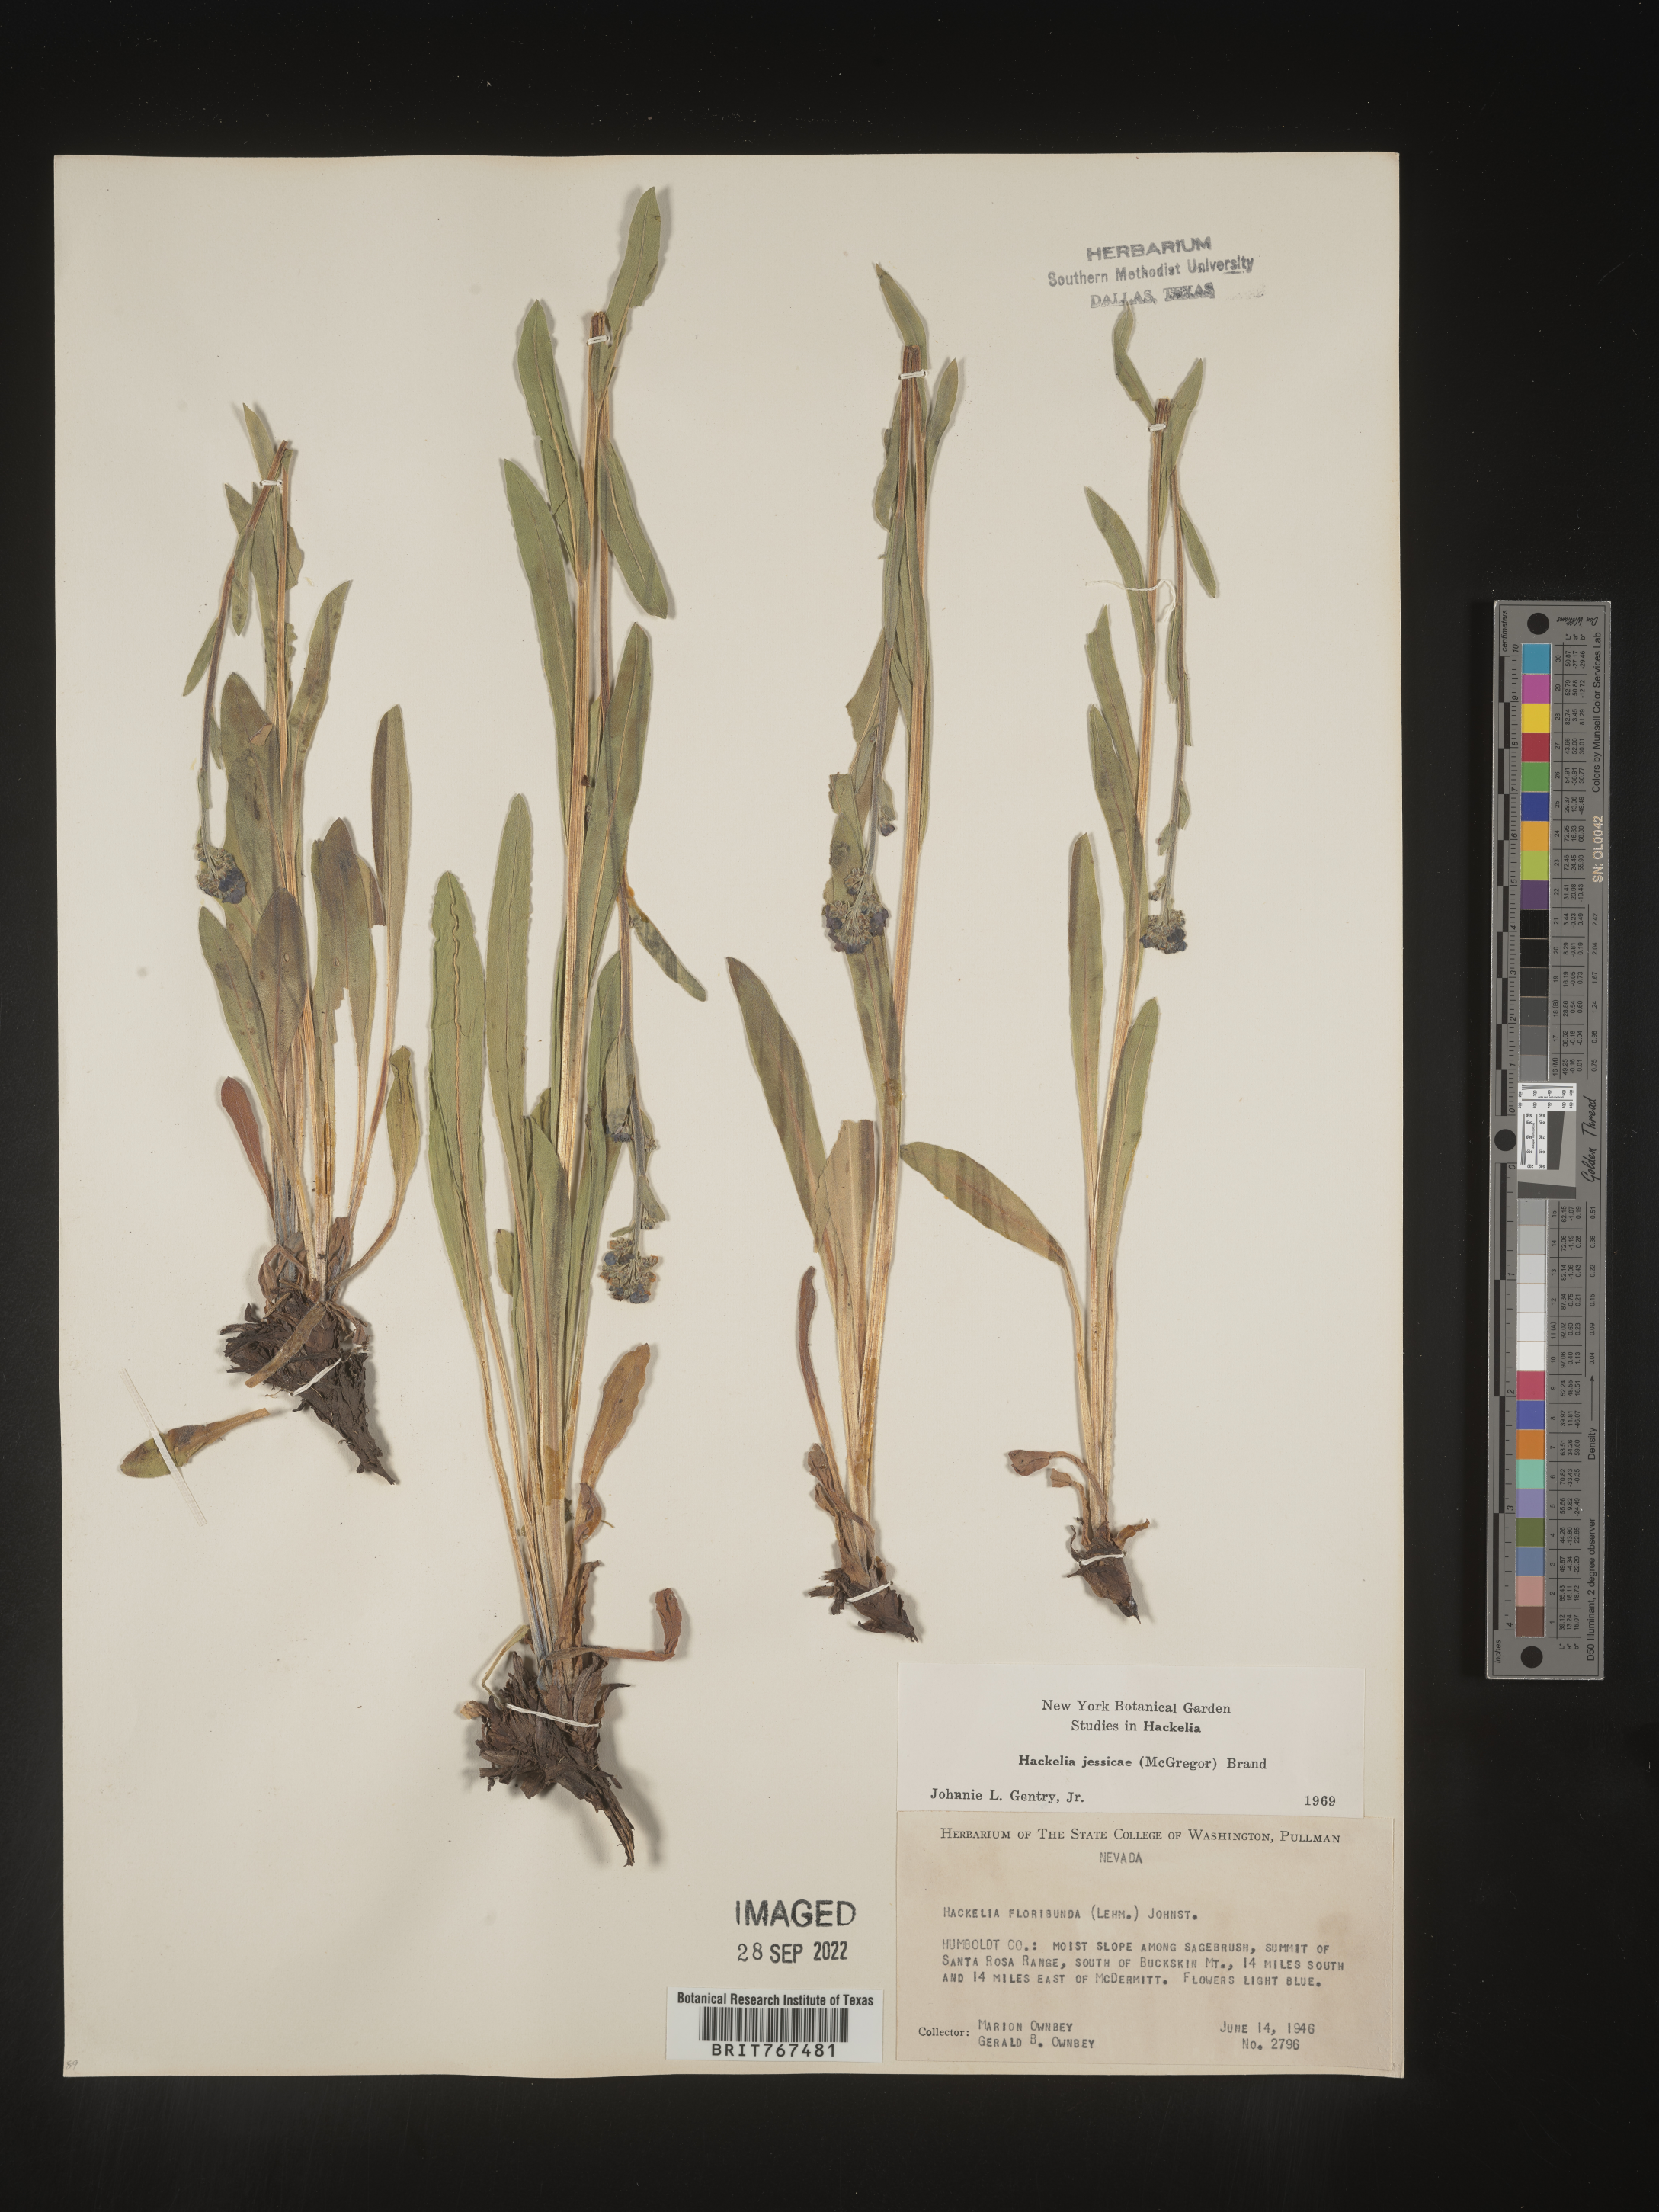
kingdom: Plantae
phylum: Tracheophyta
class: Magnoliopsida
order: Boraginales
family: Boraginaceae
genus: Hackelia
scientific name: Hackelia micrantha
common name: Meadow stickseed
